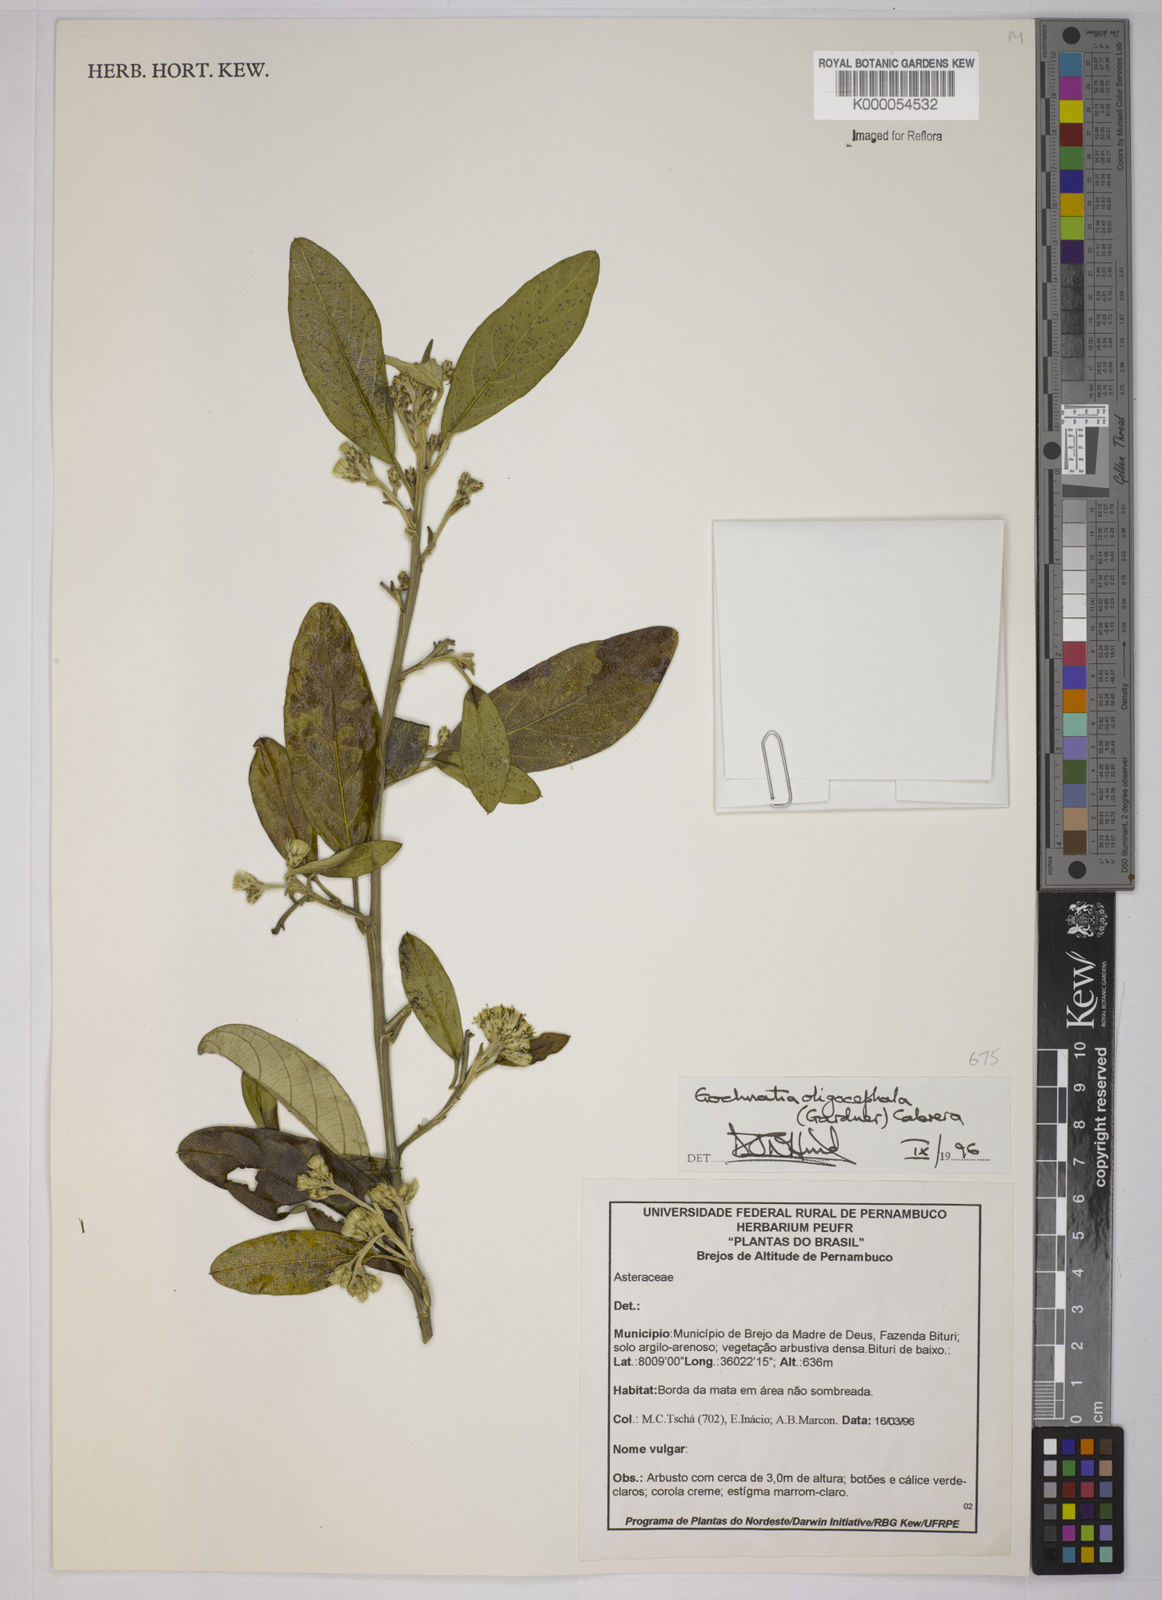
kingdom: Plantae
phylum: Tracheophyta
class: Magnoliopsida
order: Asterales
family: Asteraceae
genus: Moquiniastrum
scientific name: Moquiniastrum oligocephalum
